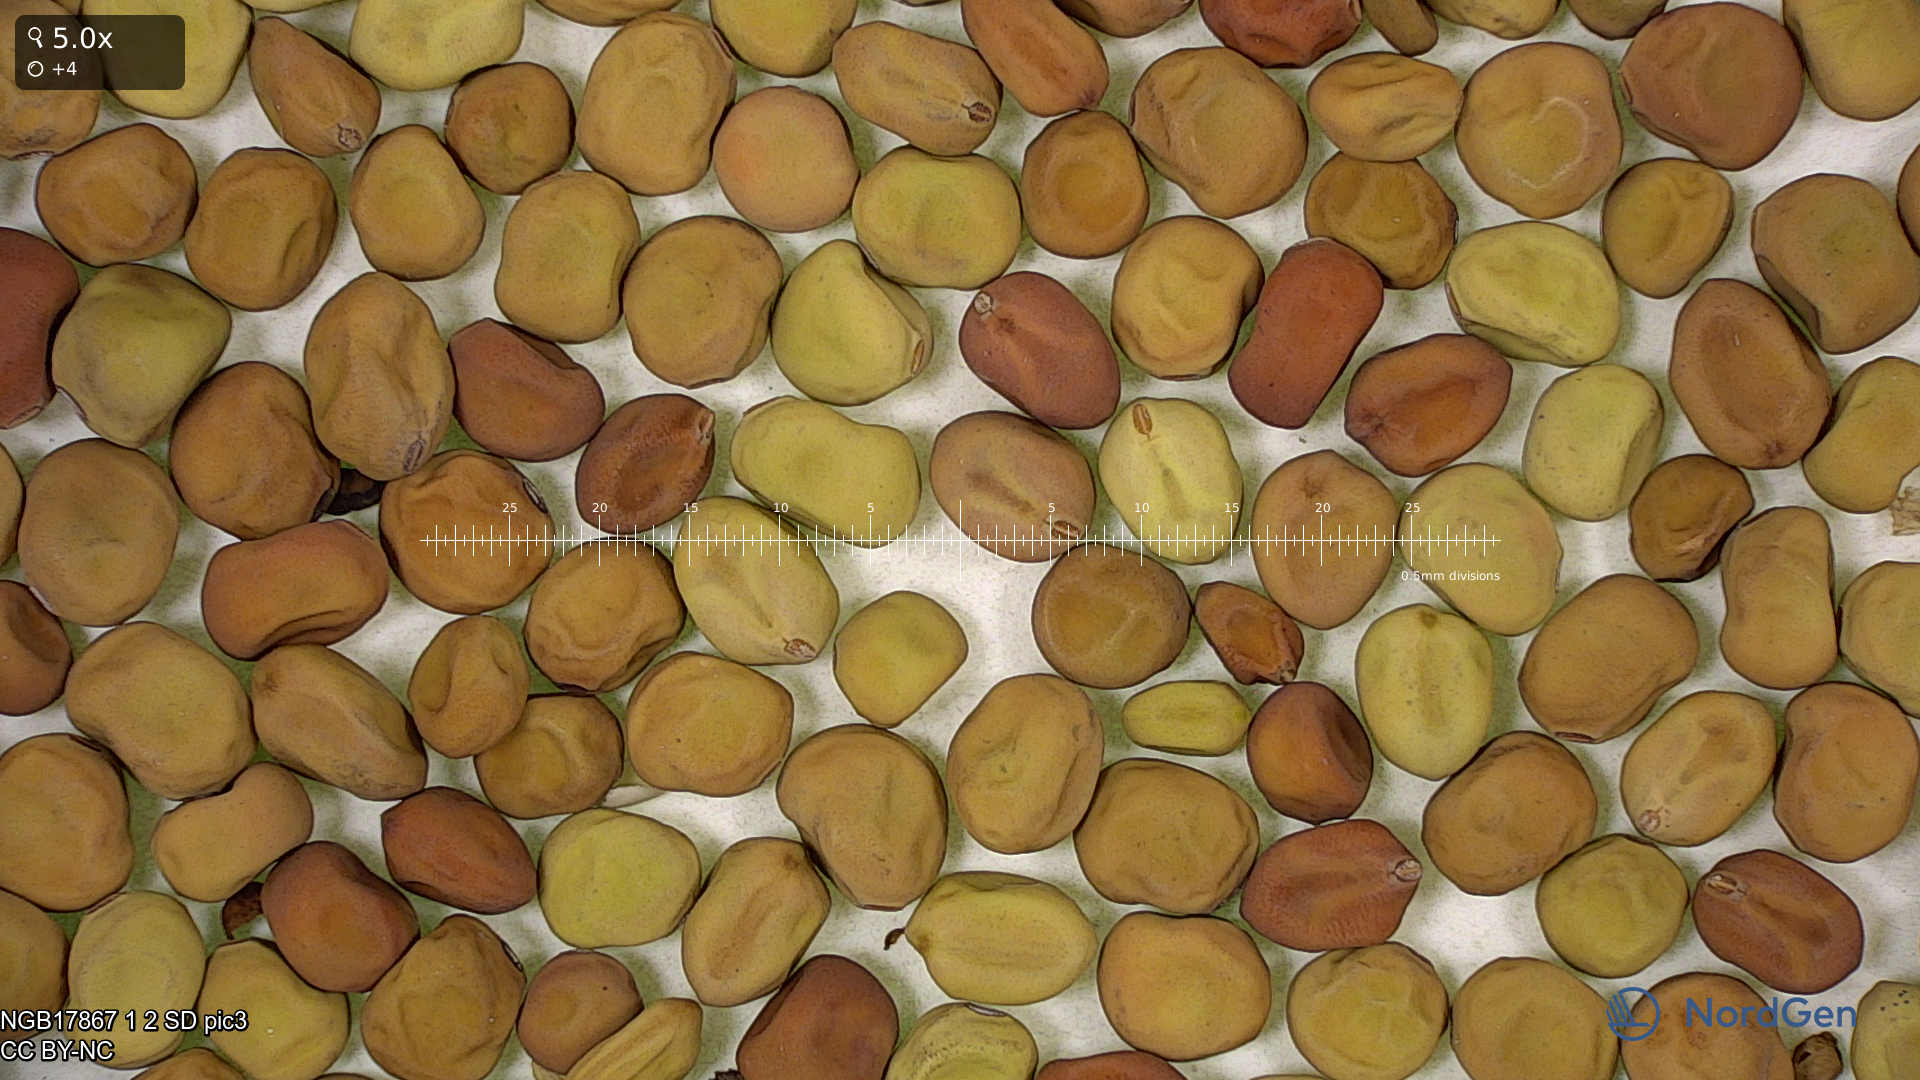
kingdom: Plantae
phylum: Tracheophyta
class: Magnoliopsida
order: Fabales
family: Fabaceae
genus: Lathyrus
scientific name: Lathyrus oleraceus
